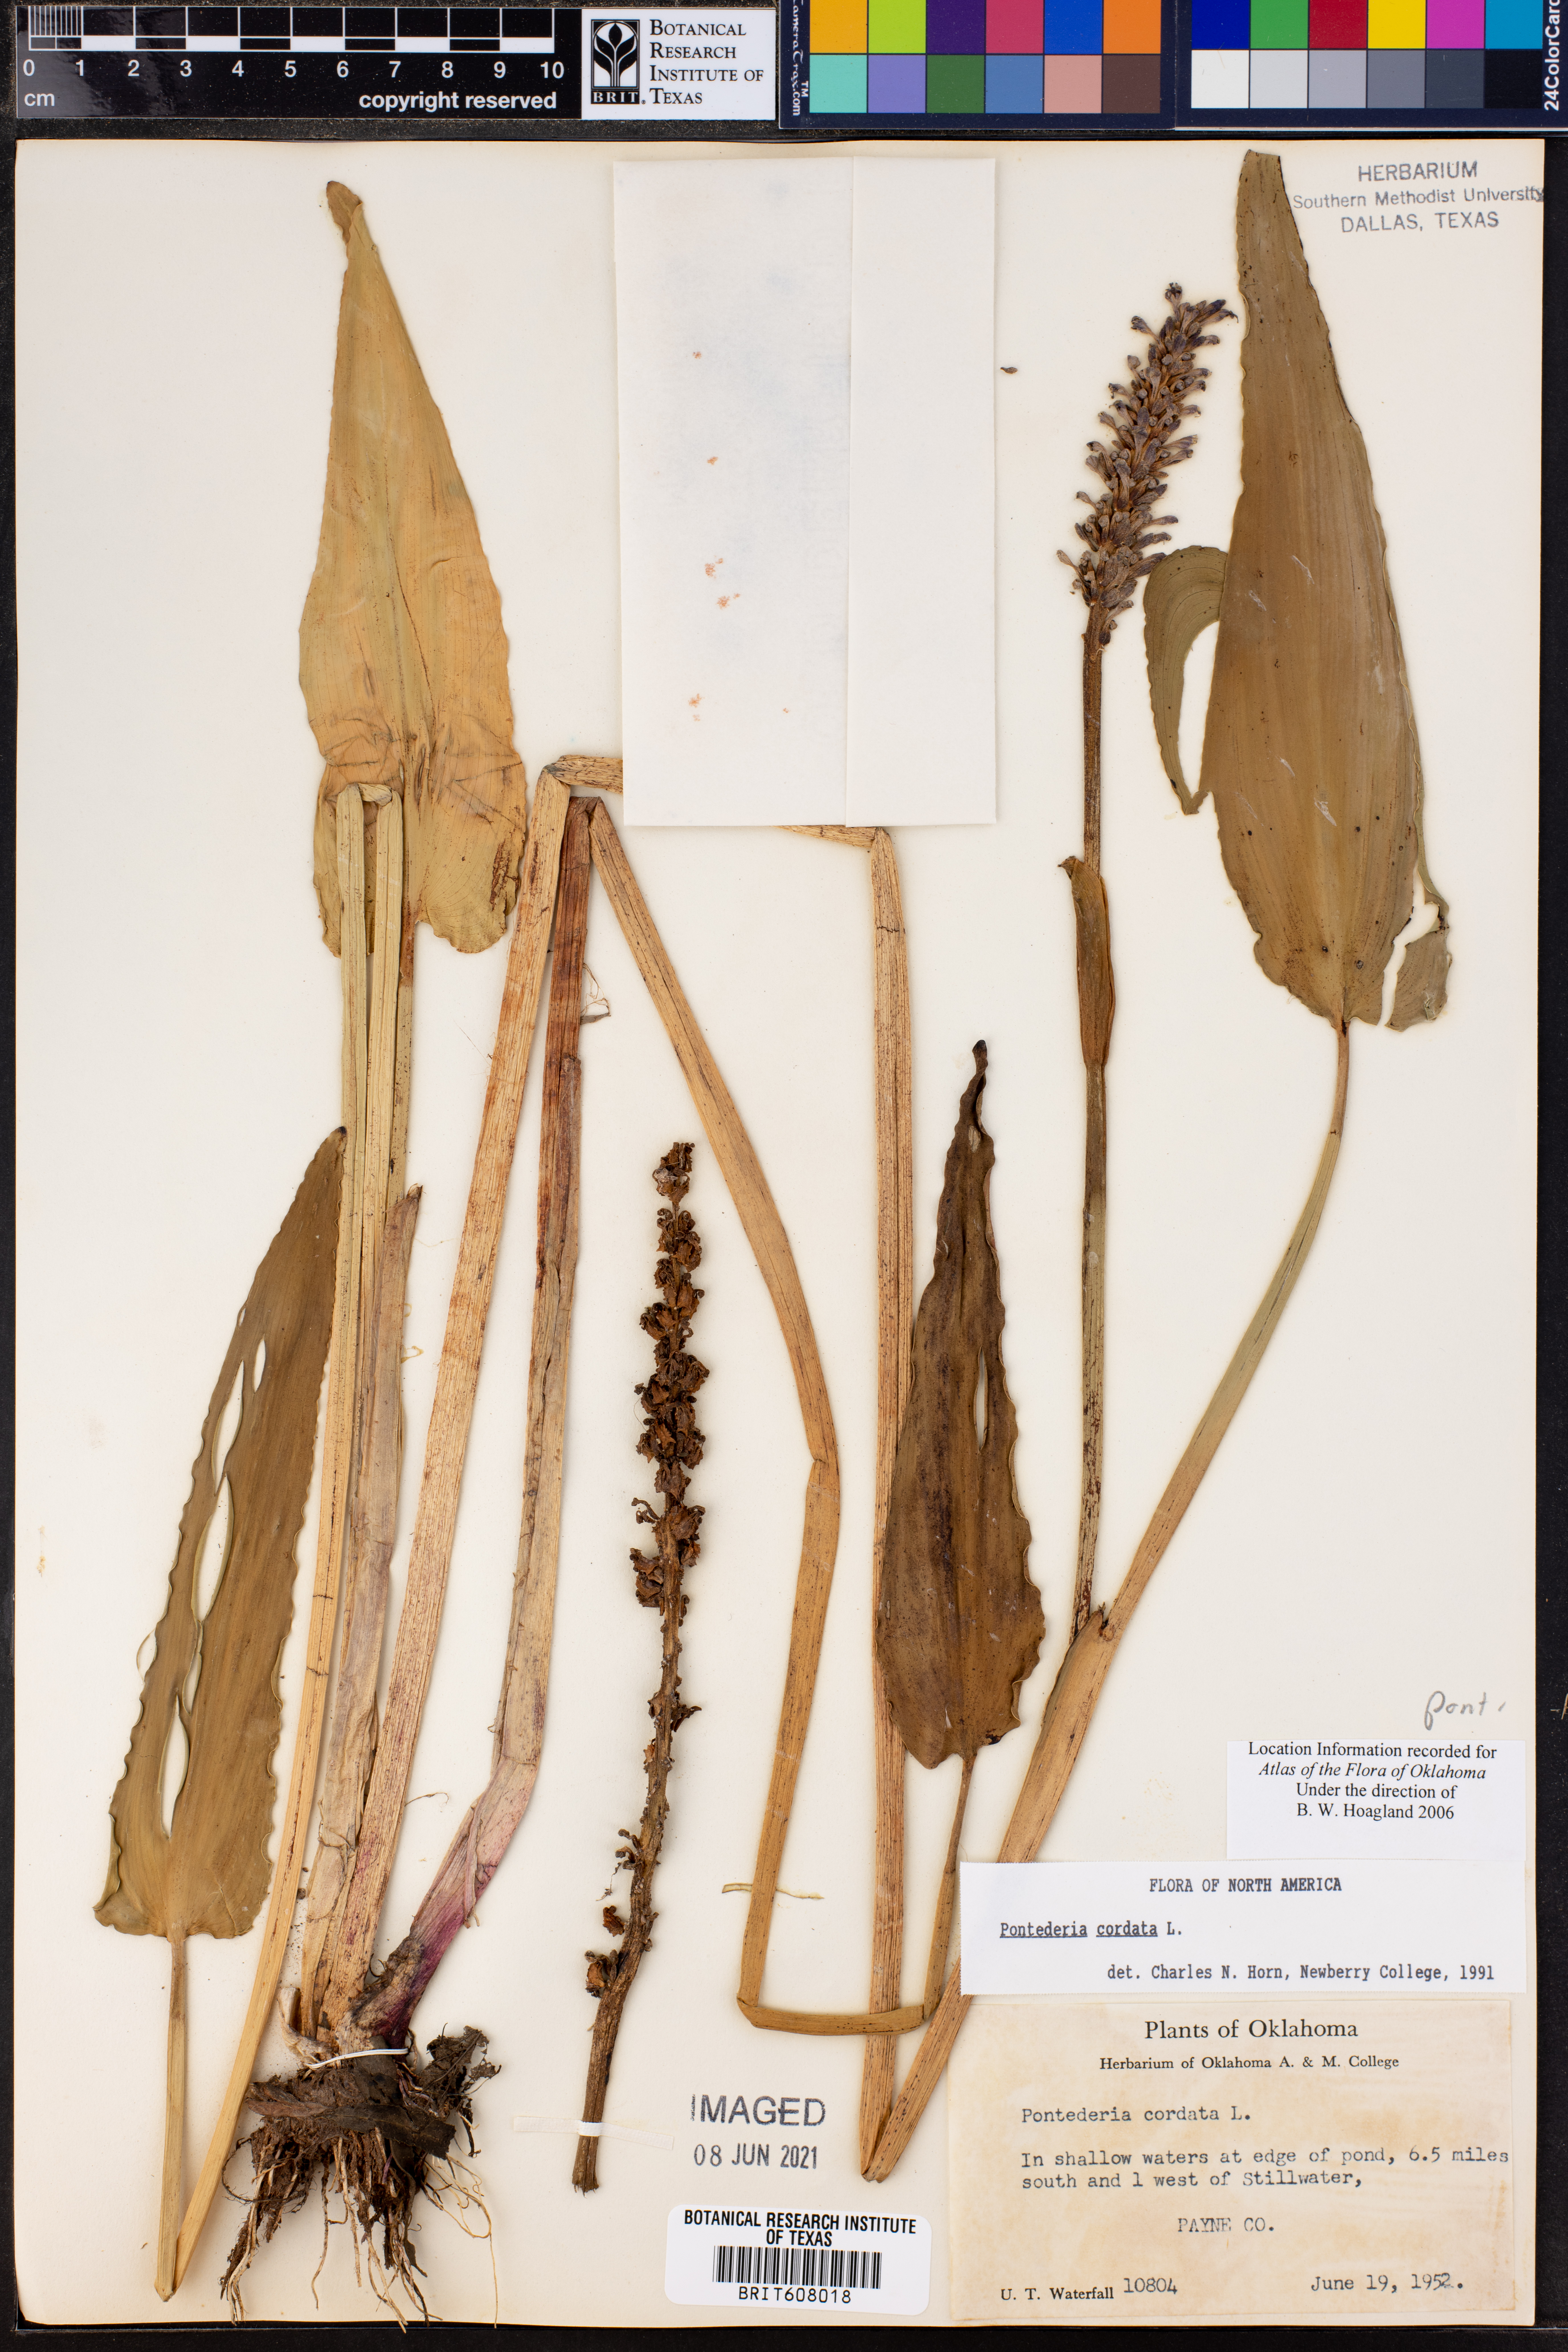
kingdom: Plantae
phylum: Tracheophyta
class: Liliopsida
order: Commelinales
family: Pontederiaceae
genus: Pontederia
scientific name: Pontederia cordata
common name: Pickerelweed
